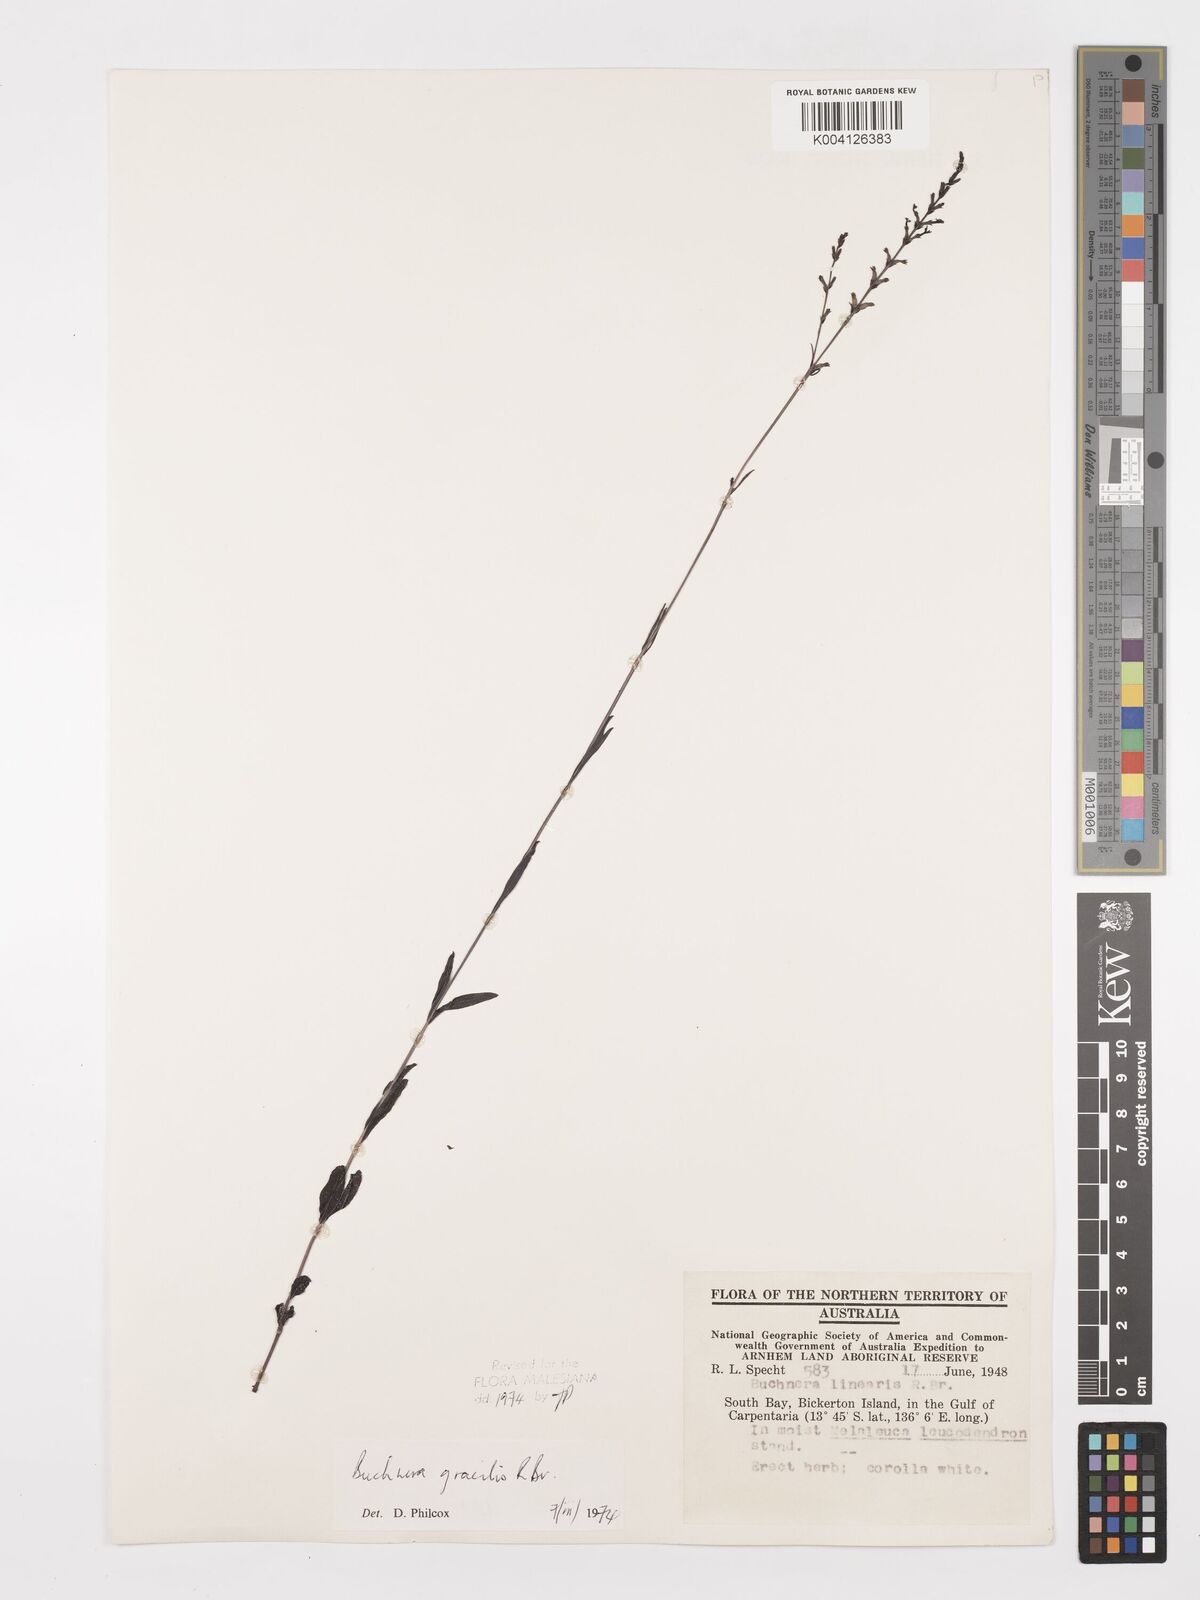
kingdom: Plantae
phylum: Tracheophyta
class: Magnoliopsida
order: Lamiales
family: Orobanchaceae
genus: Buchnera
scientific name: Buchnera gracilis
